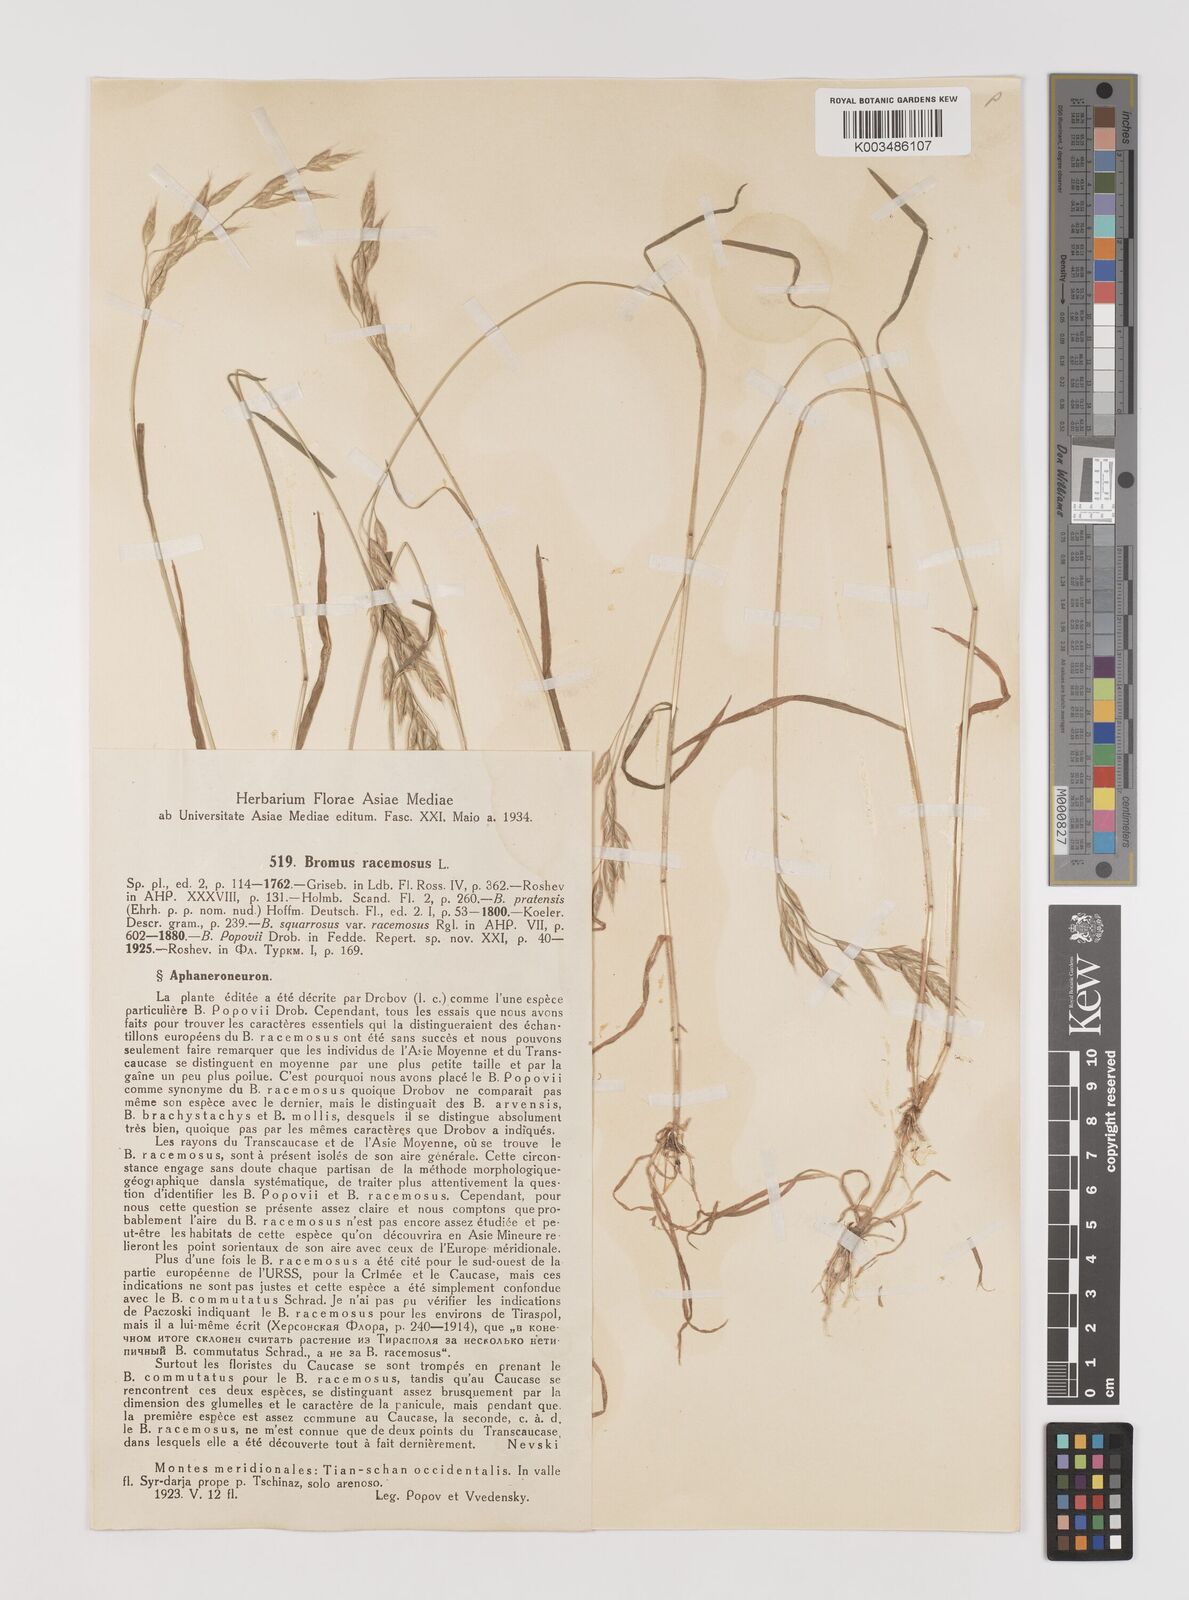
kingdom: Plantae
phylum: Tracheophyta
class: Liliopsida
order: Poales
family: Poaceae
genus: Bromus
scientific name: Bromus racemosus
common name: Bald brome
